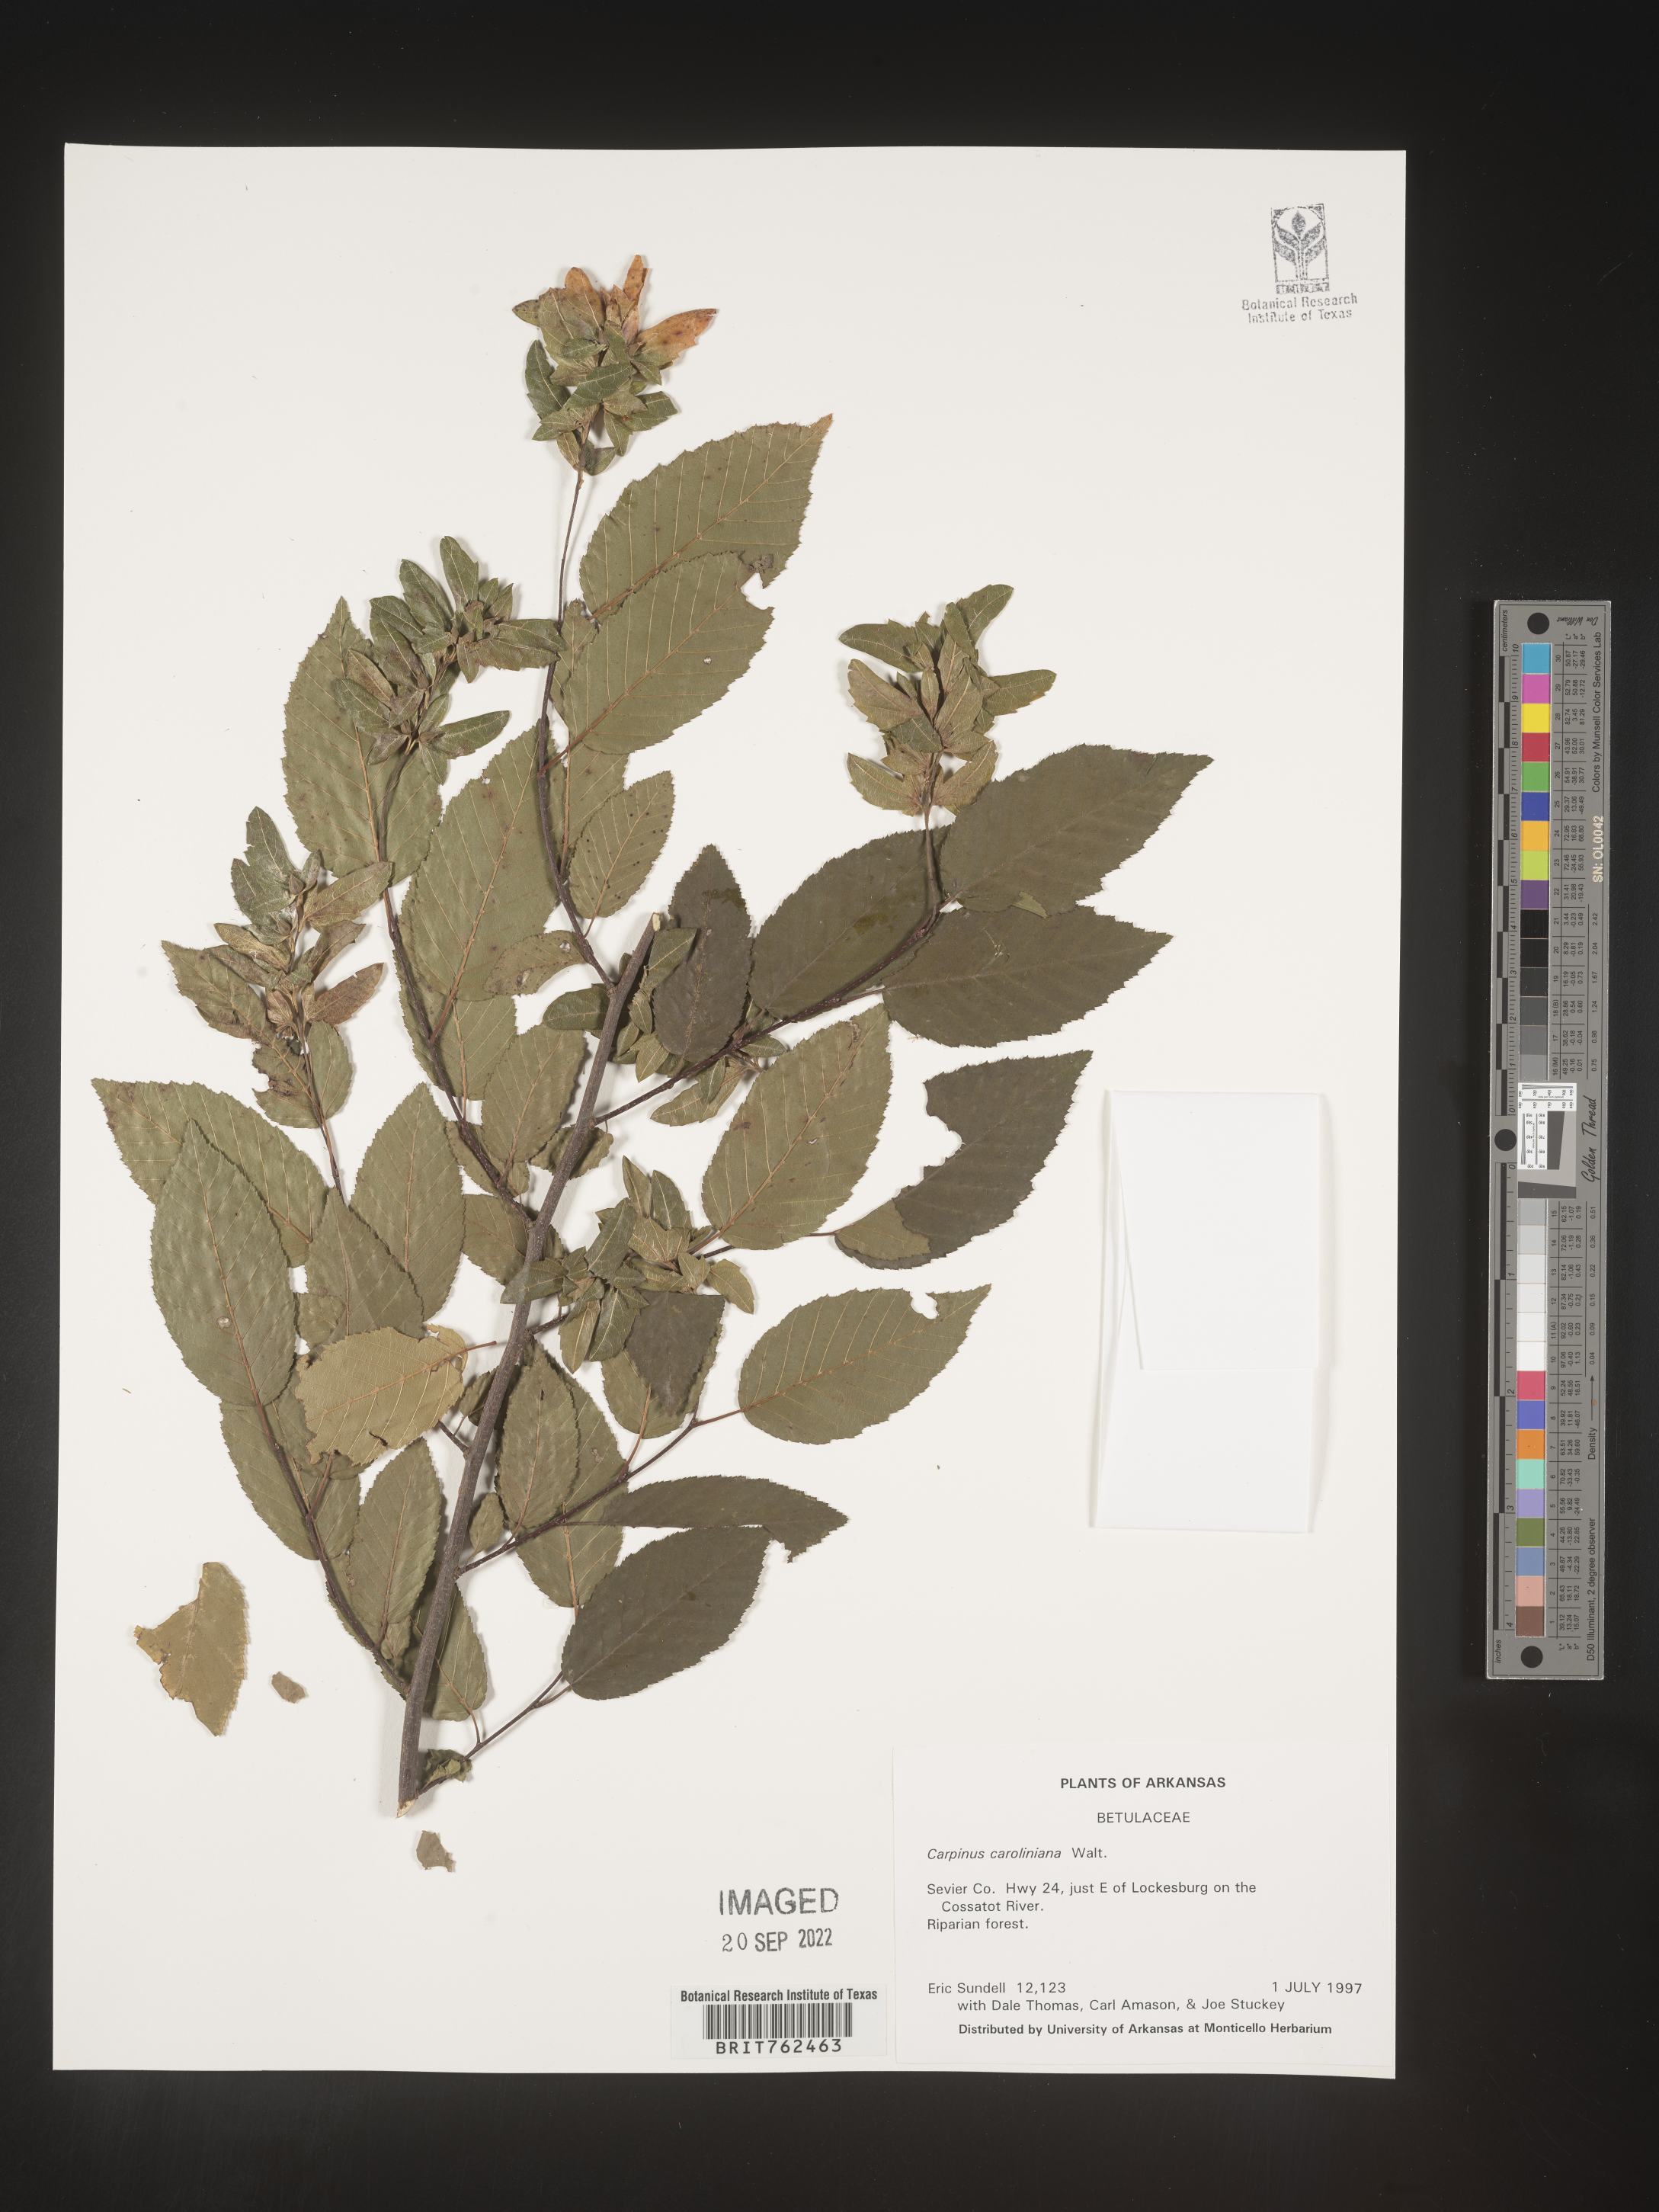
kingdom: Plantae
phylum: Tracheophyta
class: Magnoliopsida
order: Fagales
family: Betulaceae
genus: Carpinus
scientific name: Carpinus caroliniana
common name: American hornbeam
